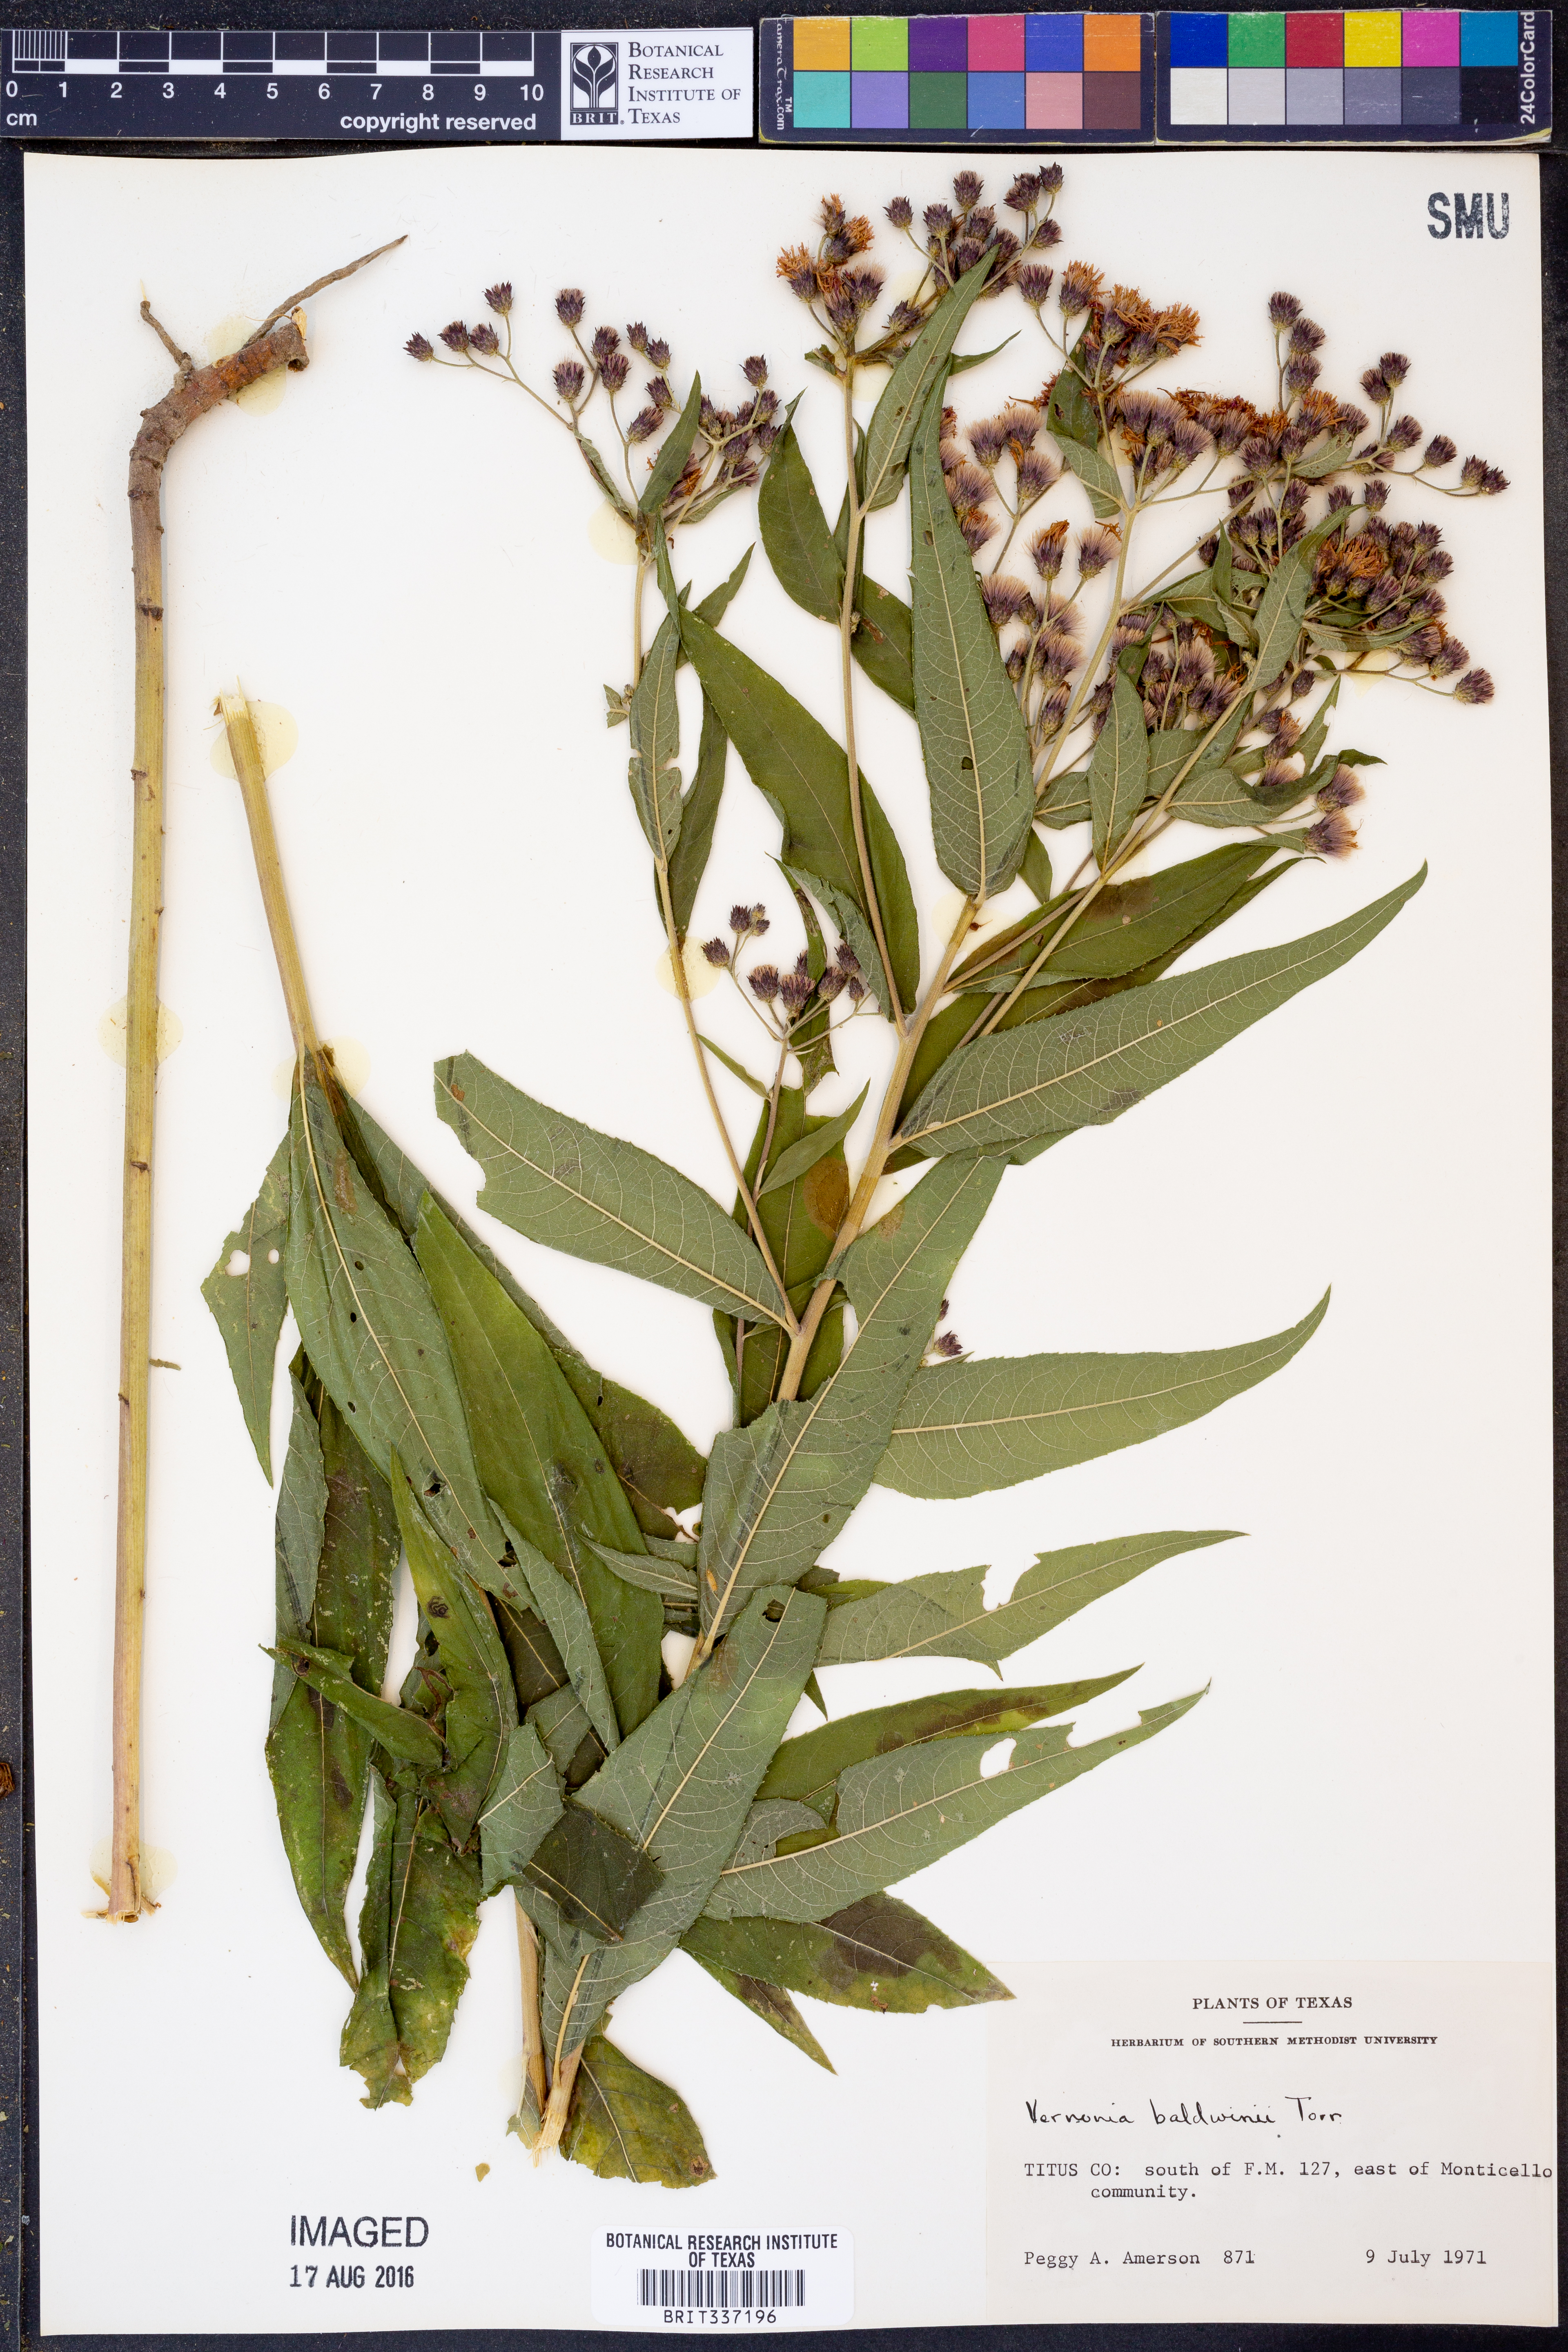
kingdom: Plantae
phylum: Tracheophyta
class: Magnoliopsida
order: Asterales
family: Asteraceae
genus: Vernonia
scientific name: Vernonia baldwinii
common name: Western ironweed
